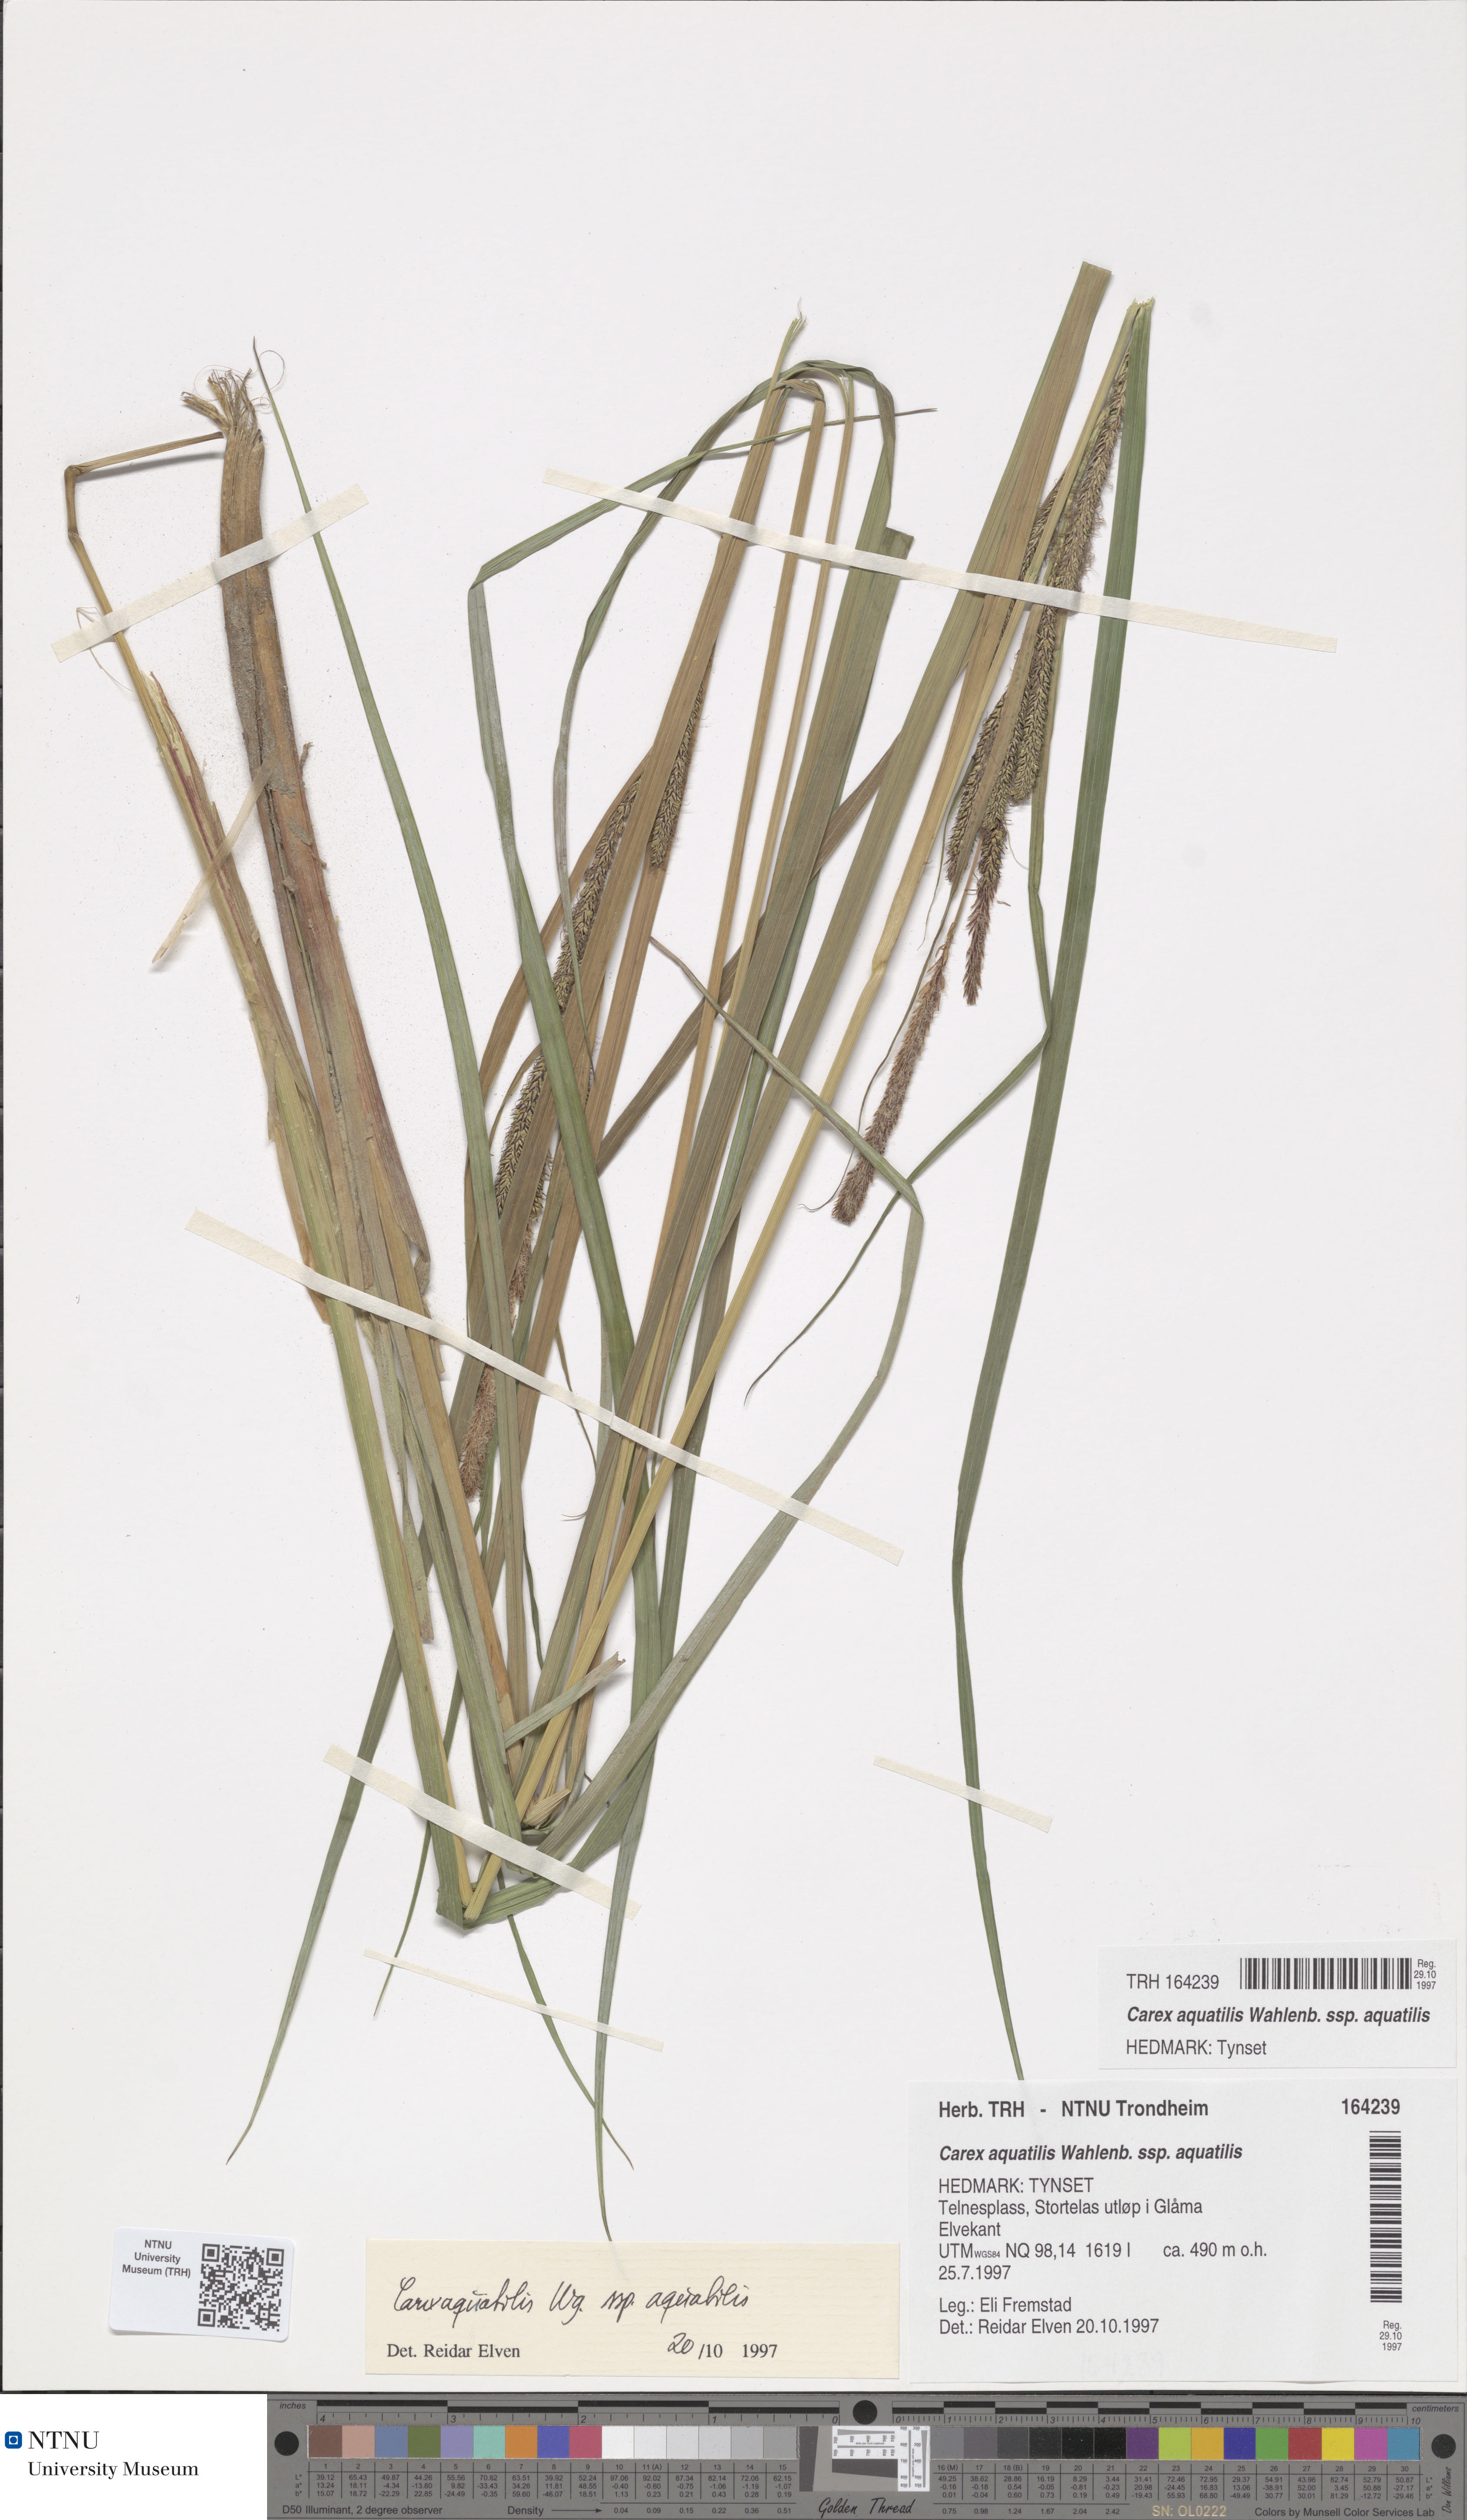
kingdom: Plantae
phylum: Tracheophyta
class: Liliopsida
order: Poales
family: Cyperaceae
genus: Carex
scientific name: Carex aquatilis
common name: Water sedge
